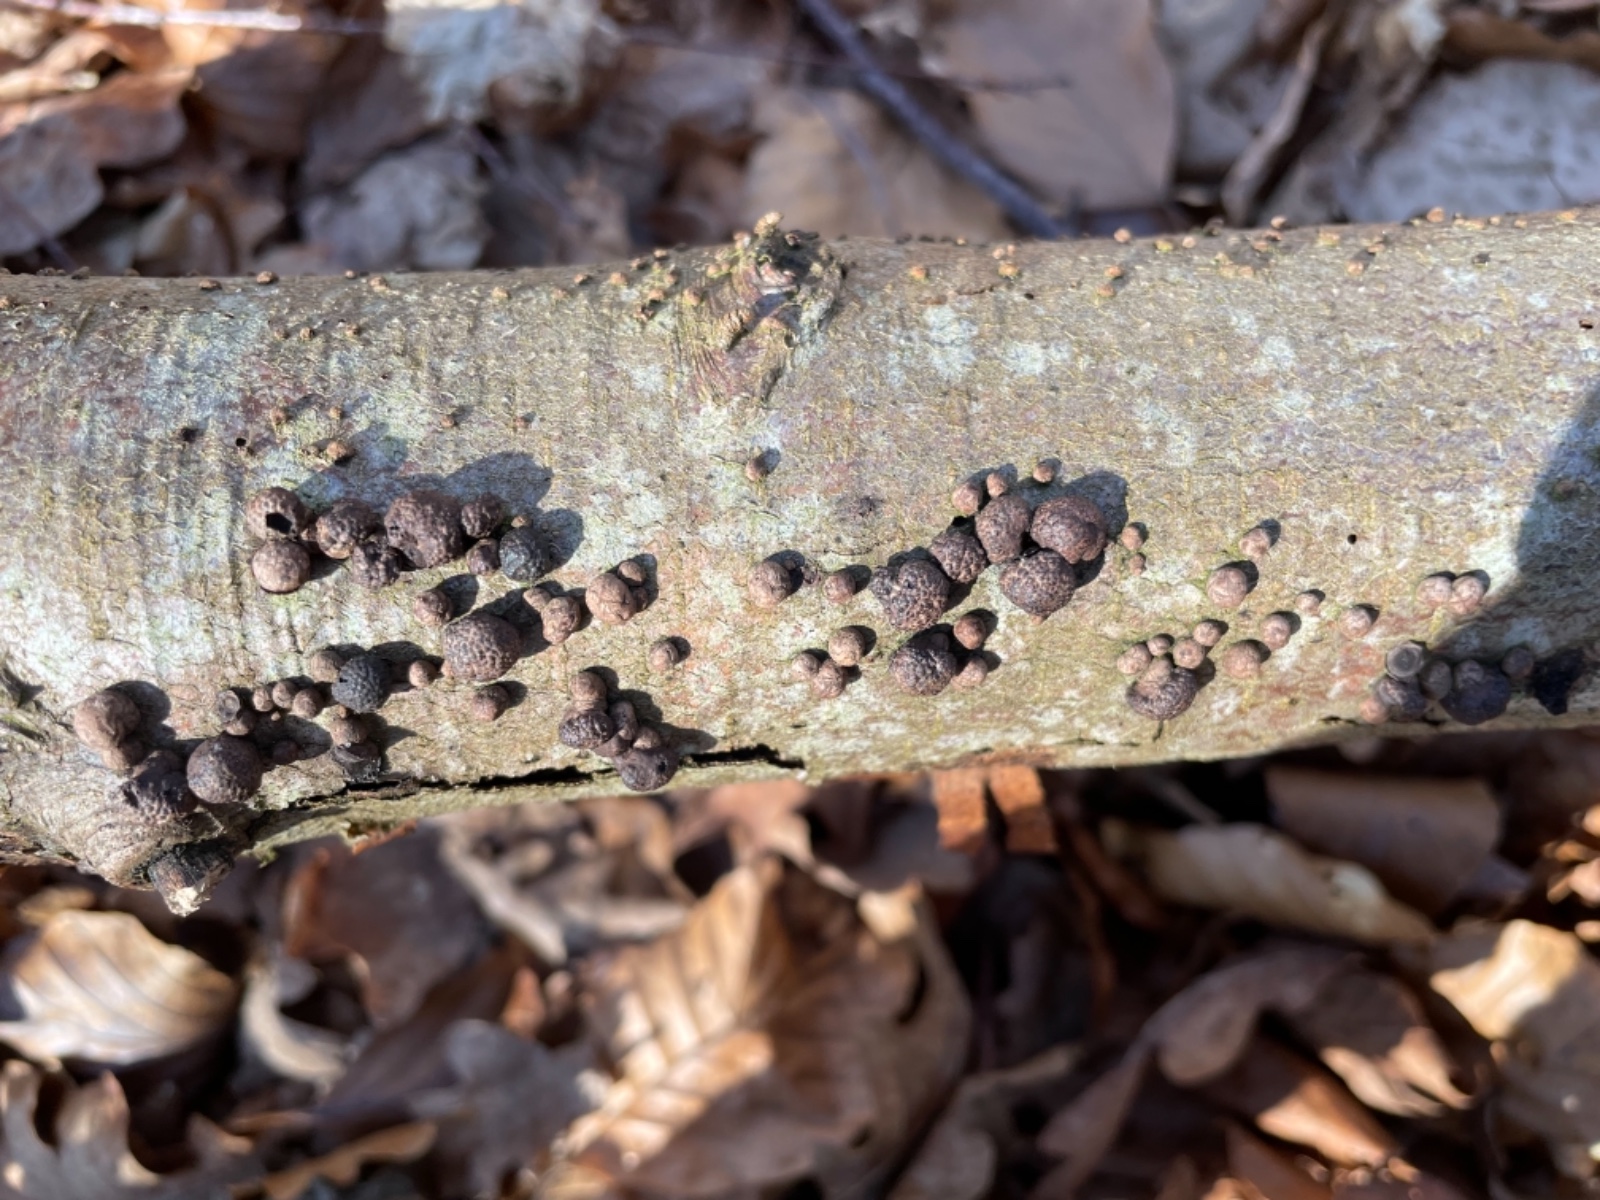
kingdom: Fungi
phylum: Ascomycota
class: Sordariomycetes
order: Xylariales
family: Hypoxylaceae
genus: Hypoxylon
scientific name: Hypoxylon fragiforme
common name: kuljordbær
